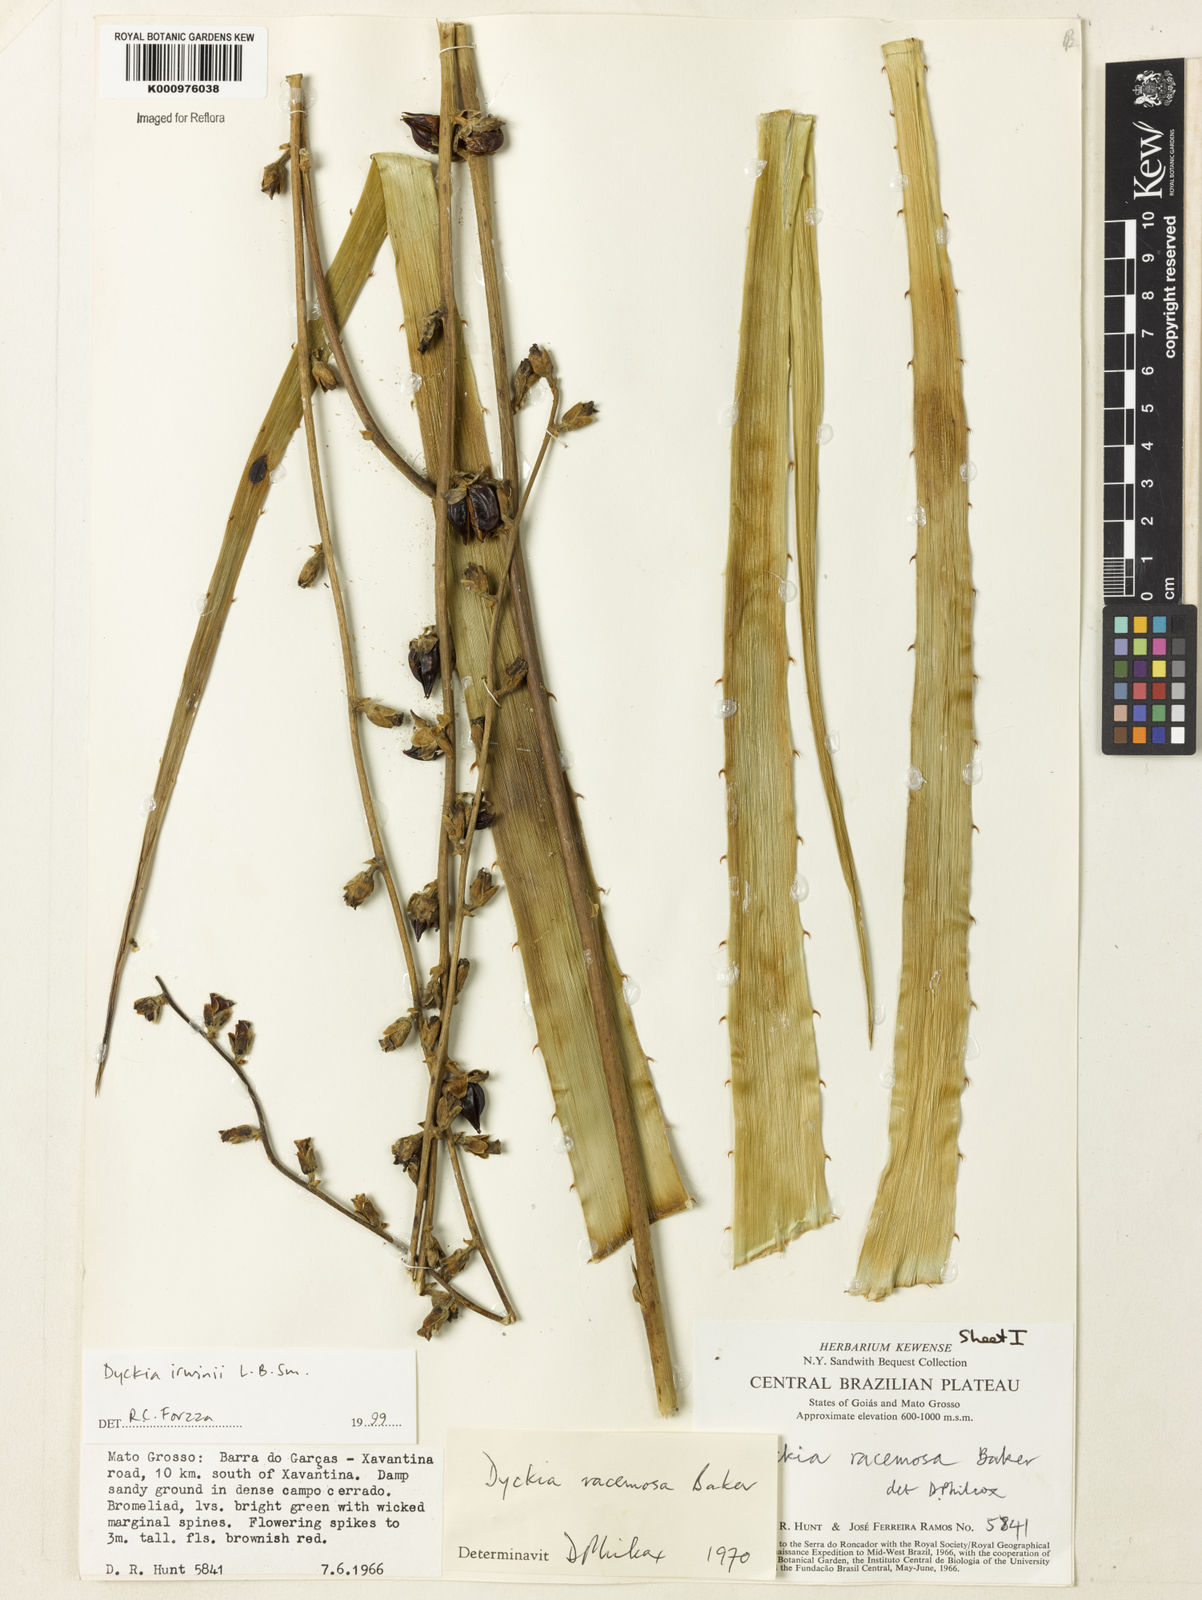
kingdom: Plantae
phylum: Tracheophyta
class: Liliopsida
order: Poales
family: Bromeliaceae
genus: Dyckia
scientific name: Dyckia irwinii
